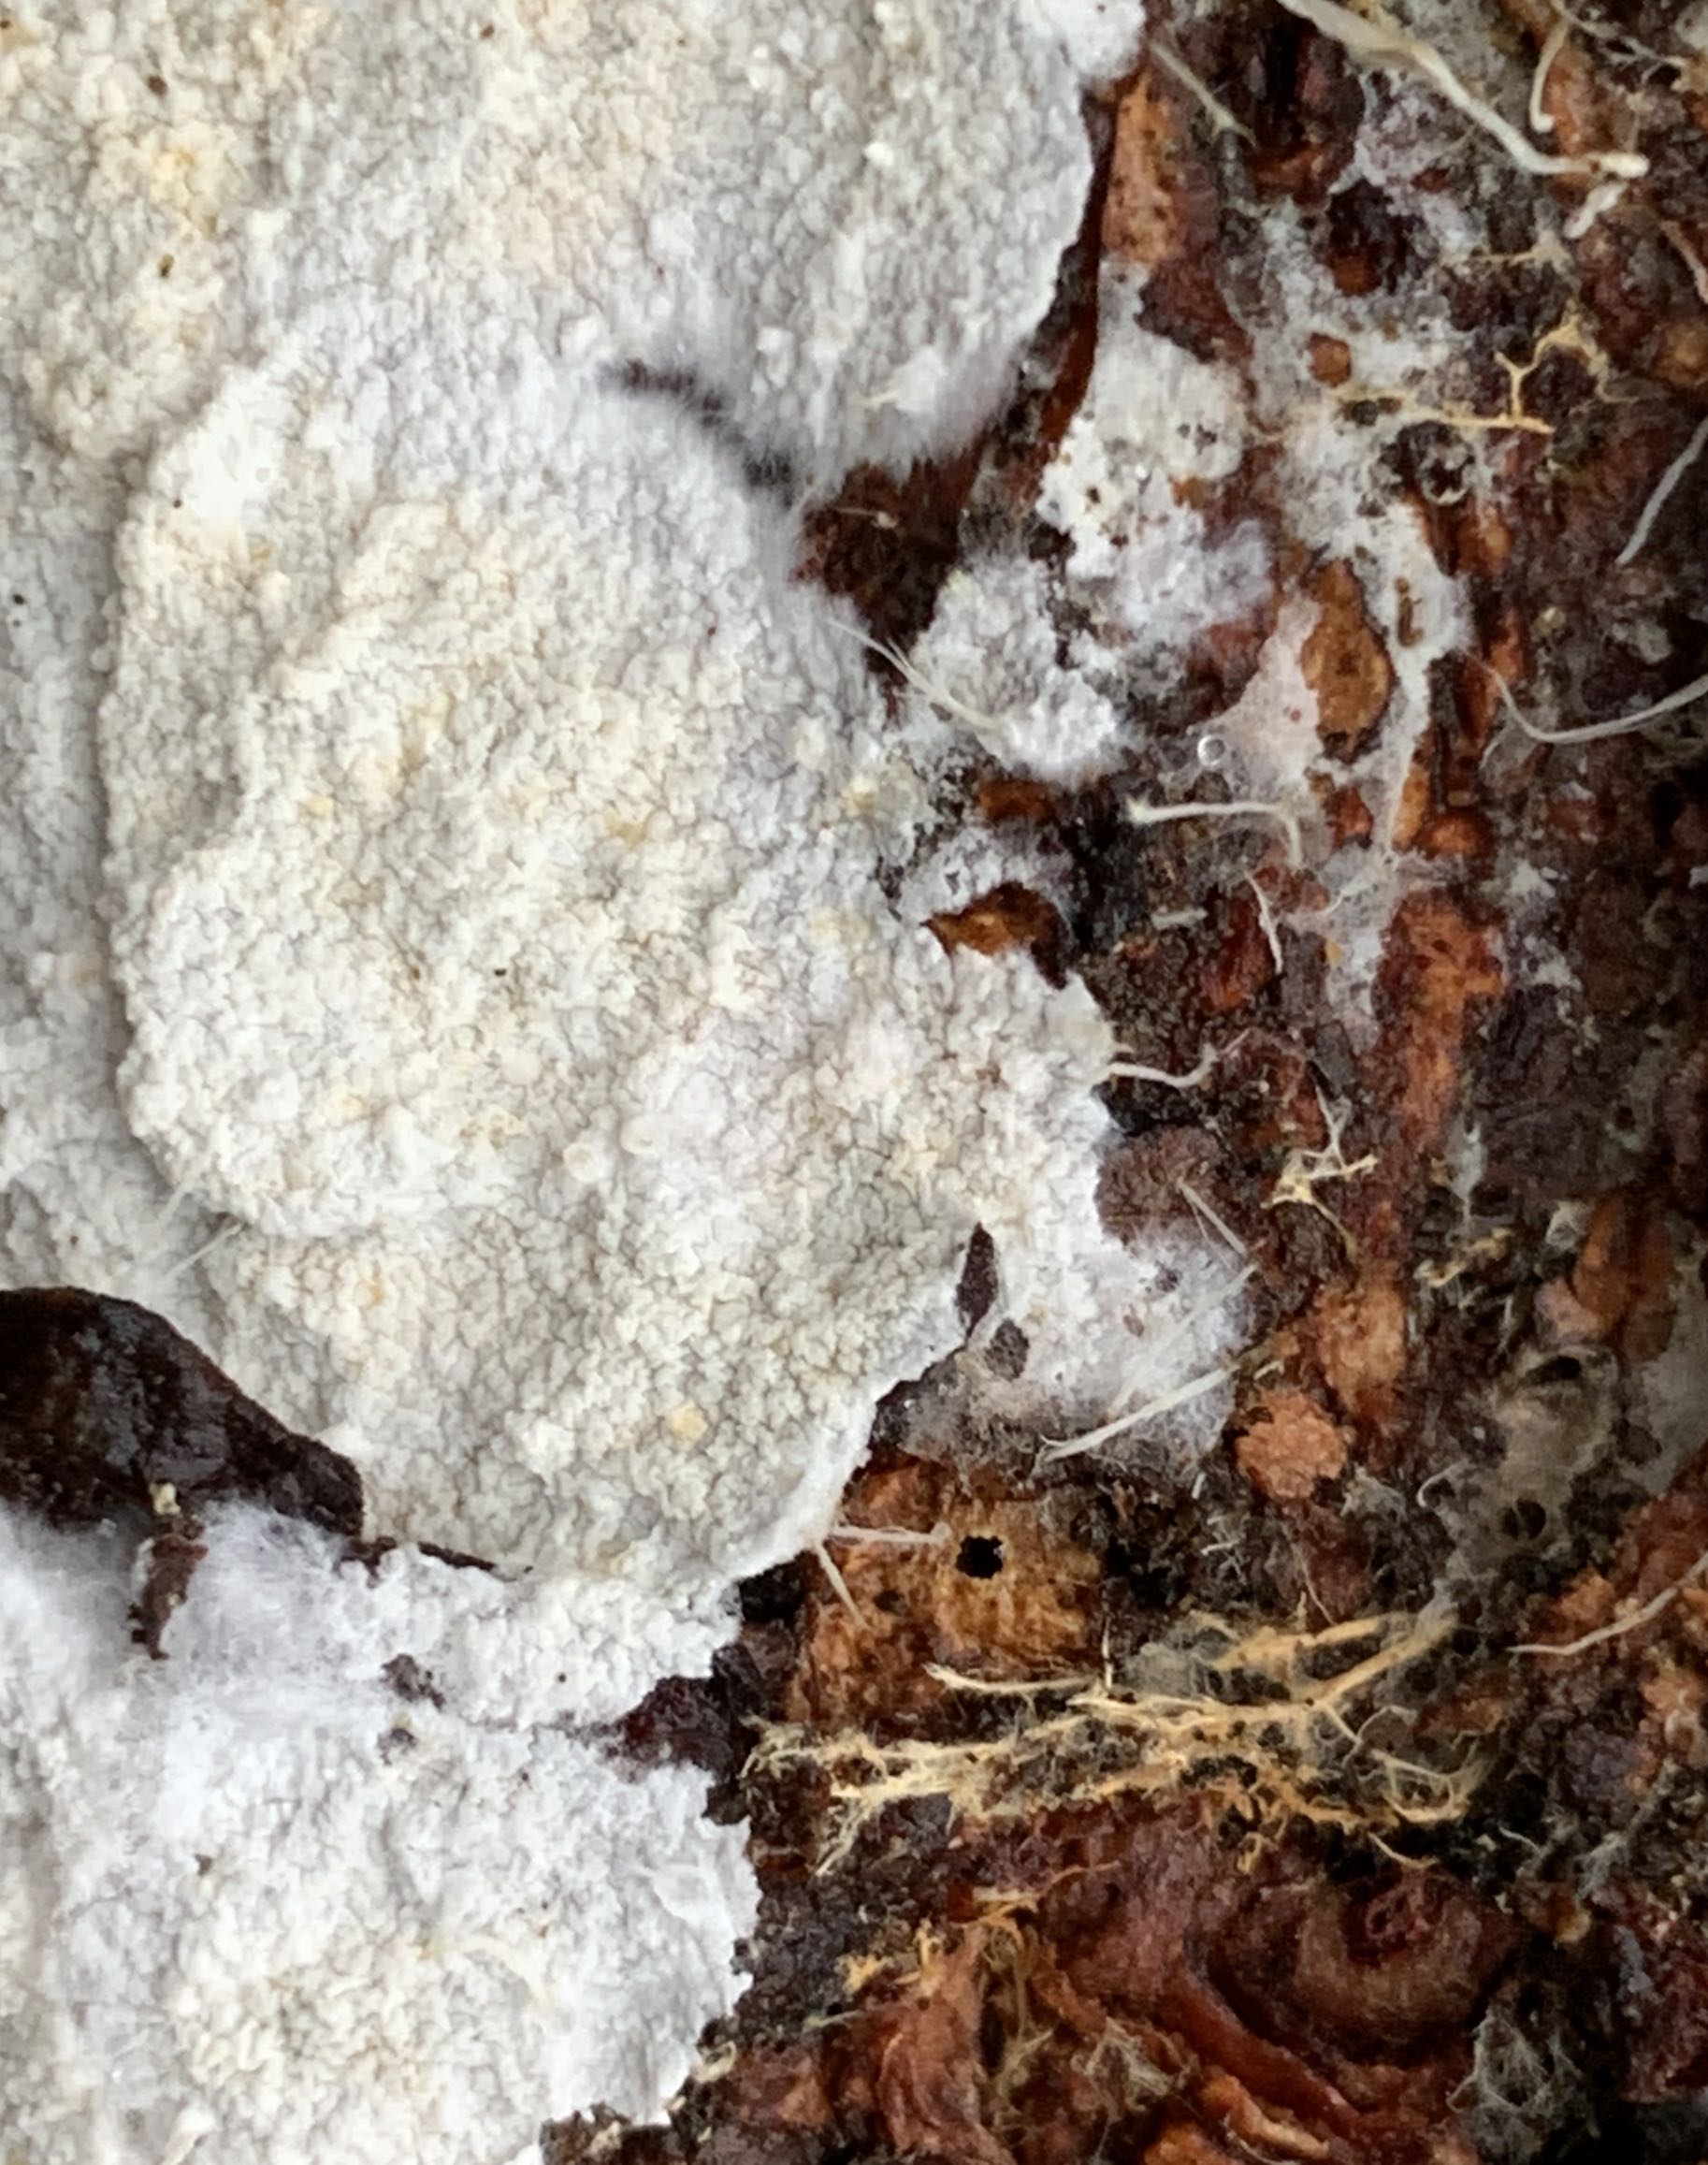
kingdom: Fungi
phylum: Basidiomycota
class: Agaricomycetes
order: Atheliales
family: Atheliaceae
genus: Leptosporomyces
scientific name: Leptosporomyces fuscostratus
